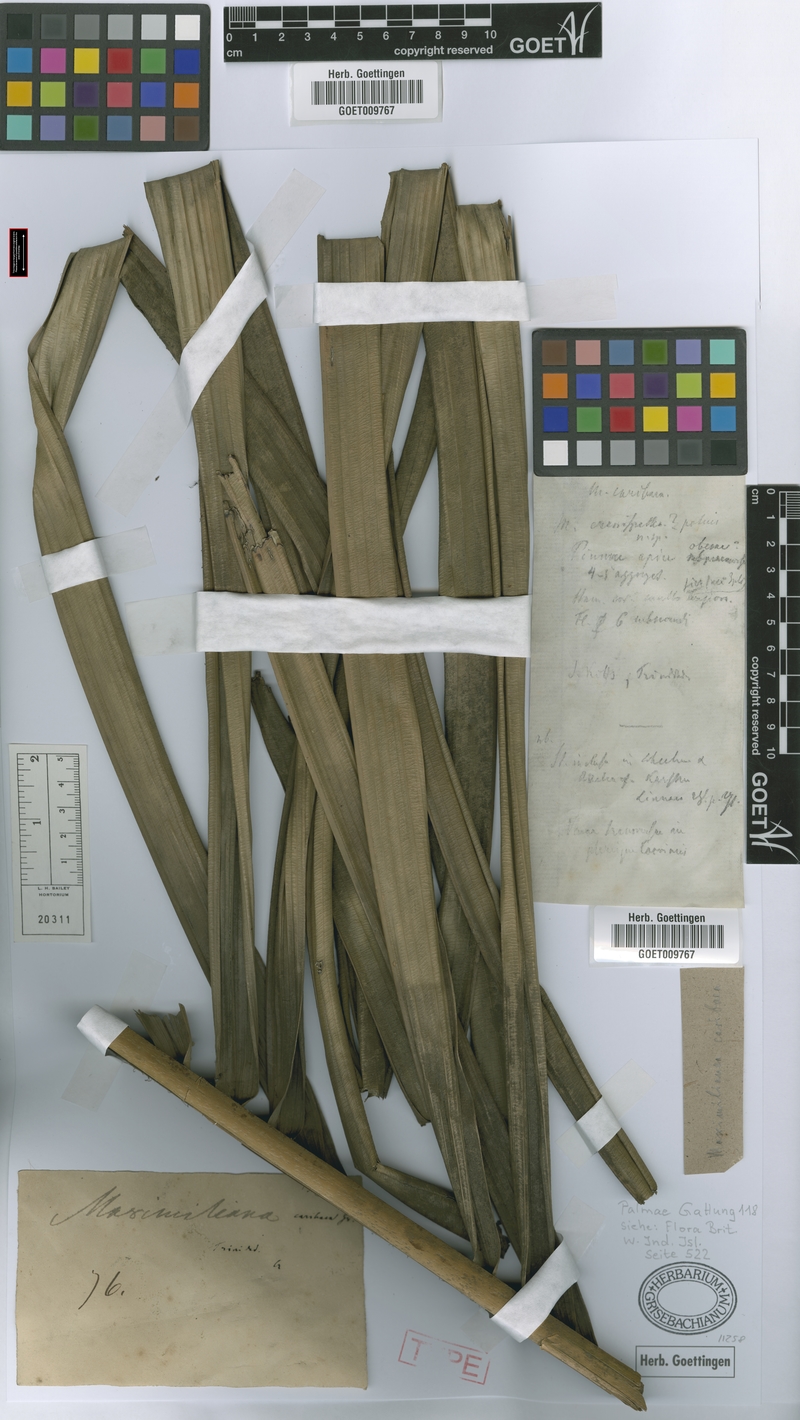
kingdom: Plantae
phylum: Tracheophyta
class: Liliopsida
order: Arecales
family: Arecaceae
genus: Attalea
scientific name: Attalea maripa
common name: Maripa palm
